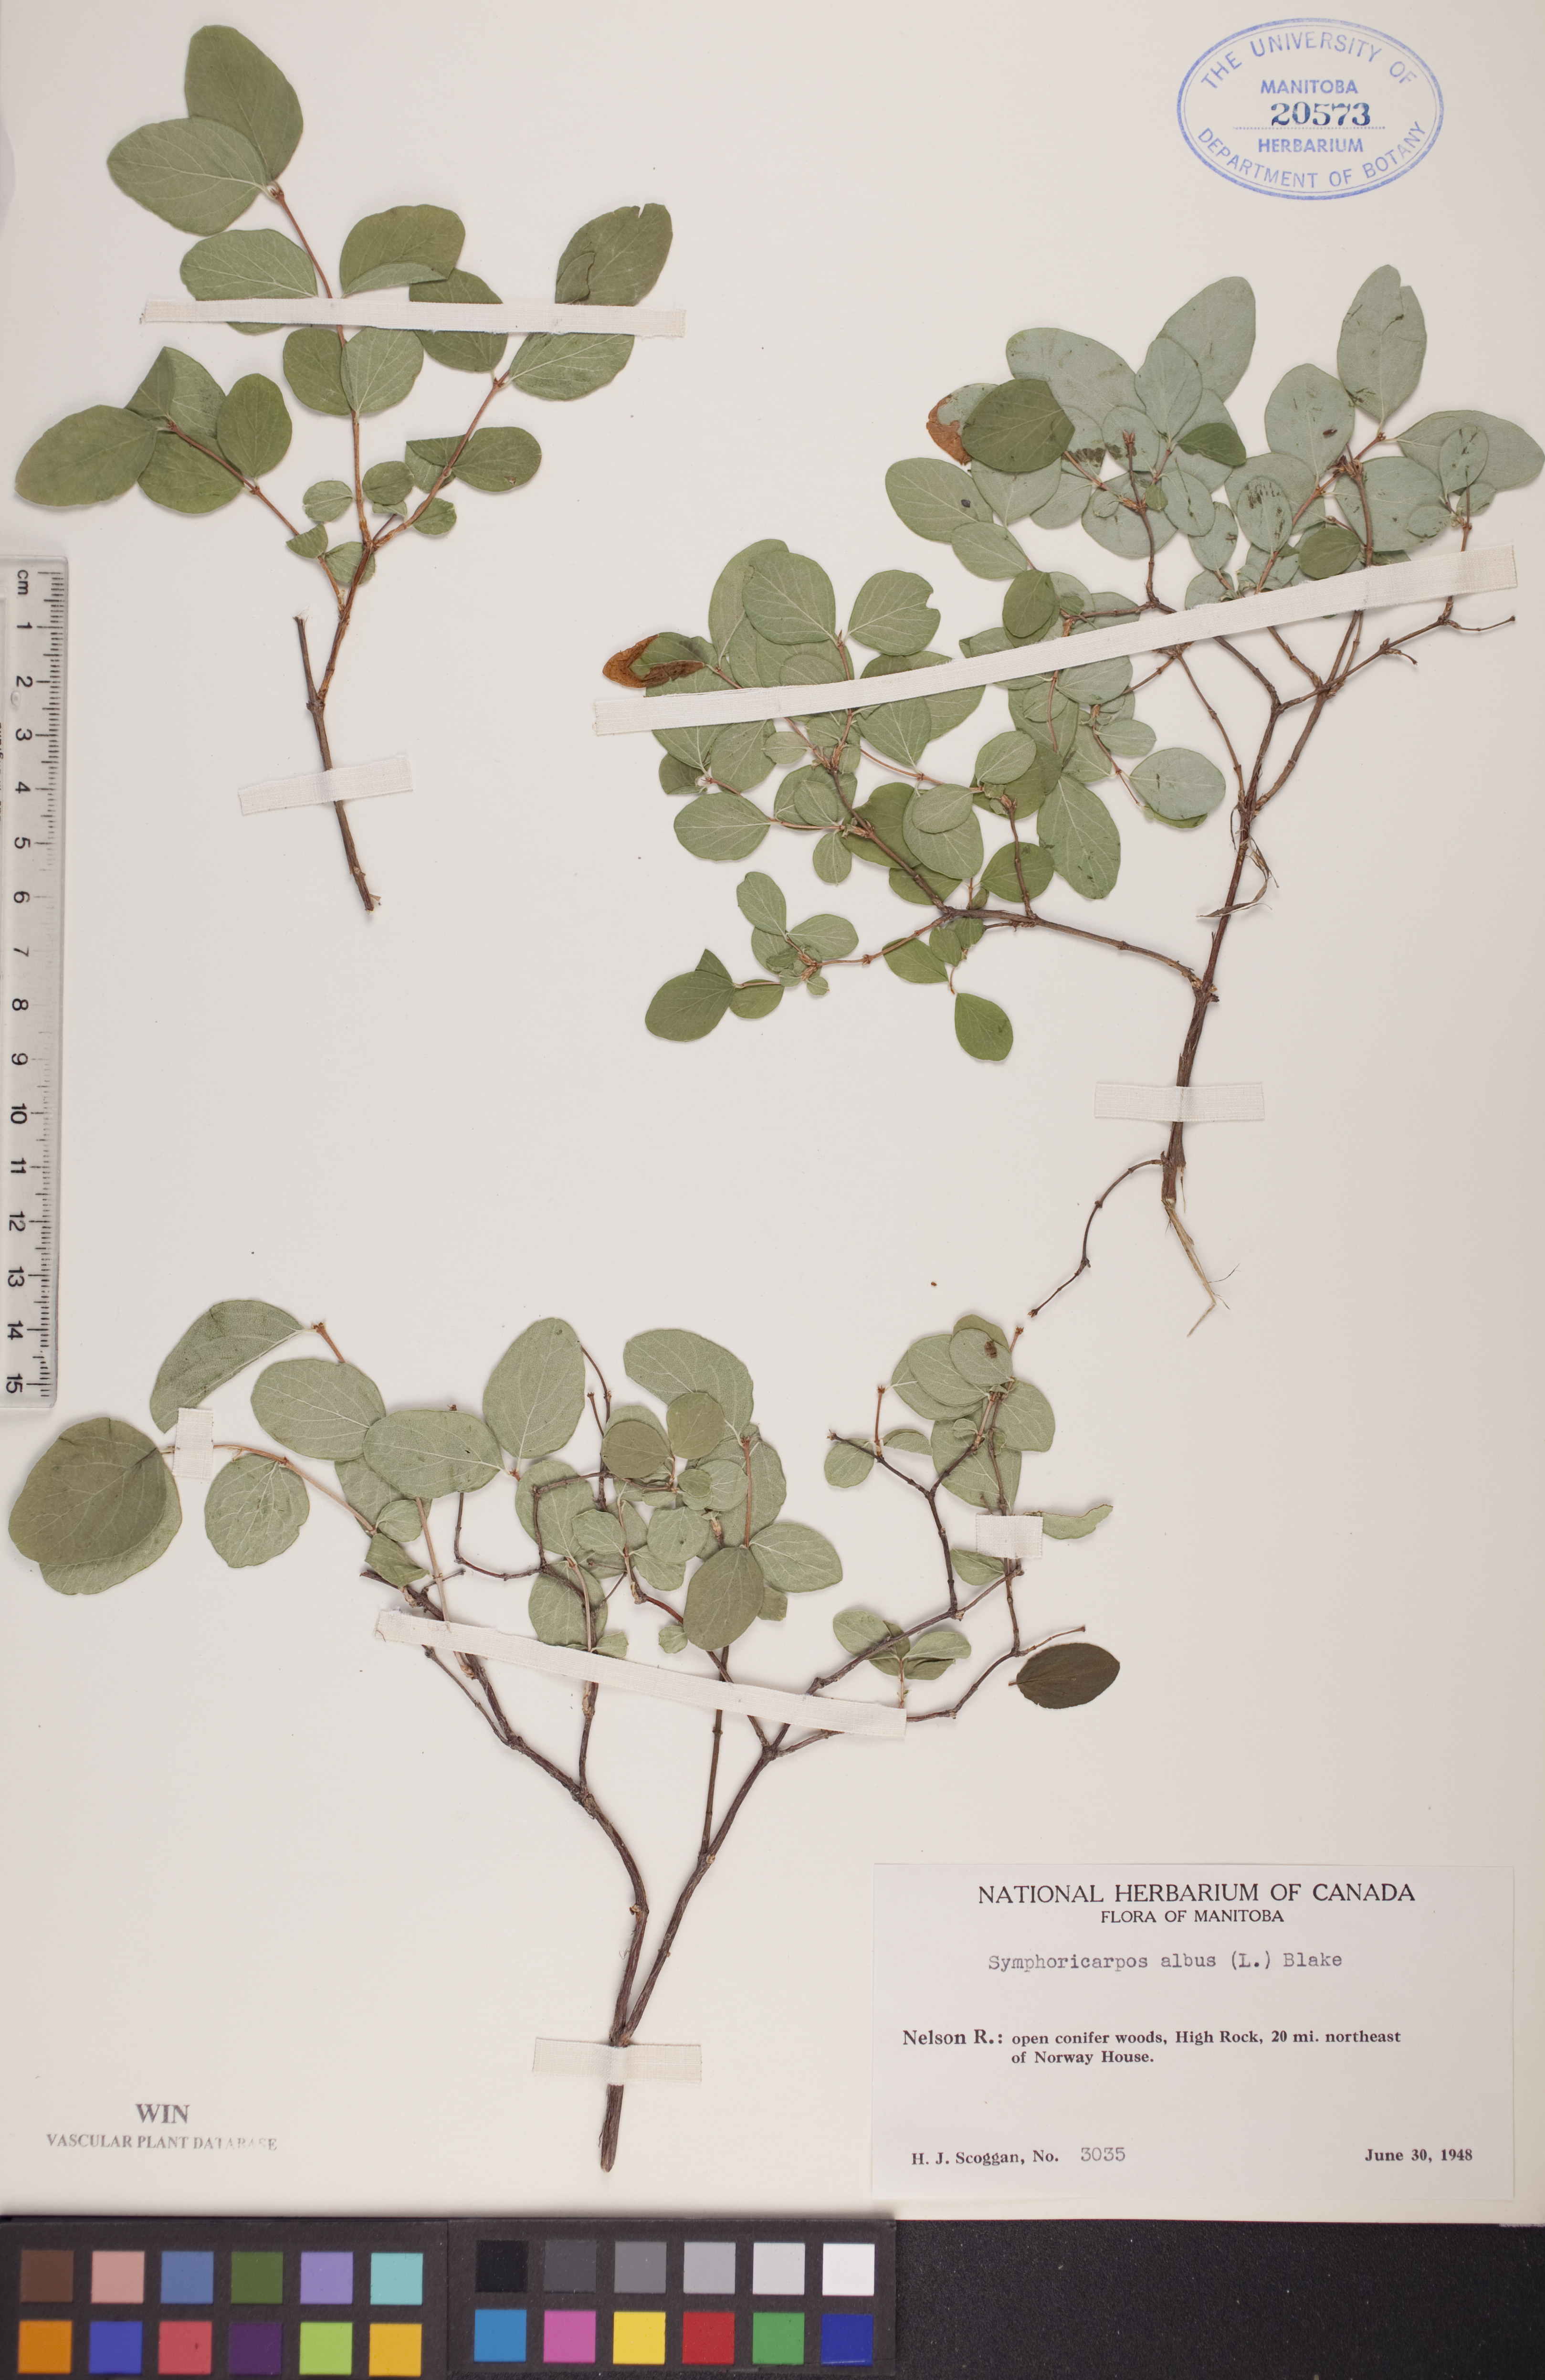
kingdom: Plantae
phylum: Tracheophyta
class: Magnoliopsida
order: Dipsacales
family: Caprifoliaceae
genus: Symphoricarpos
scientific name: Symphoricarpos albus
